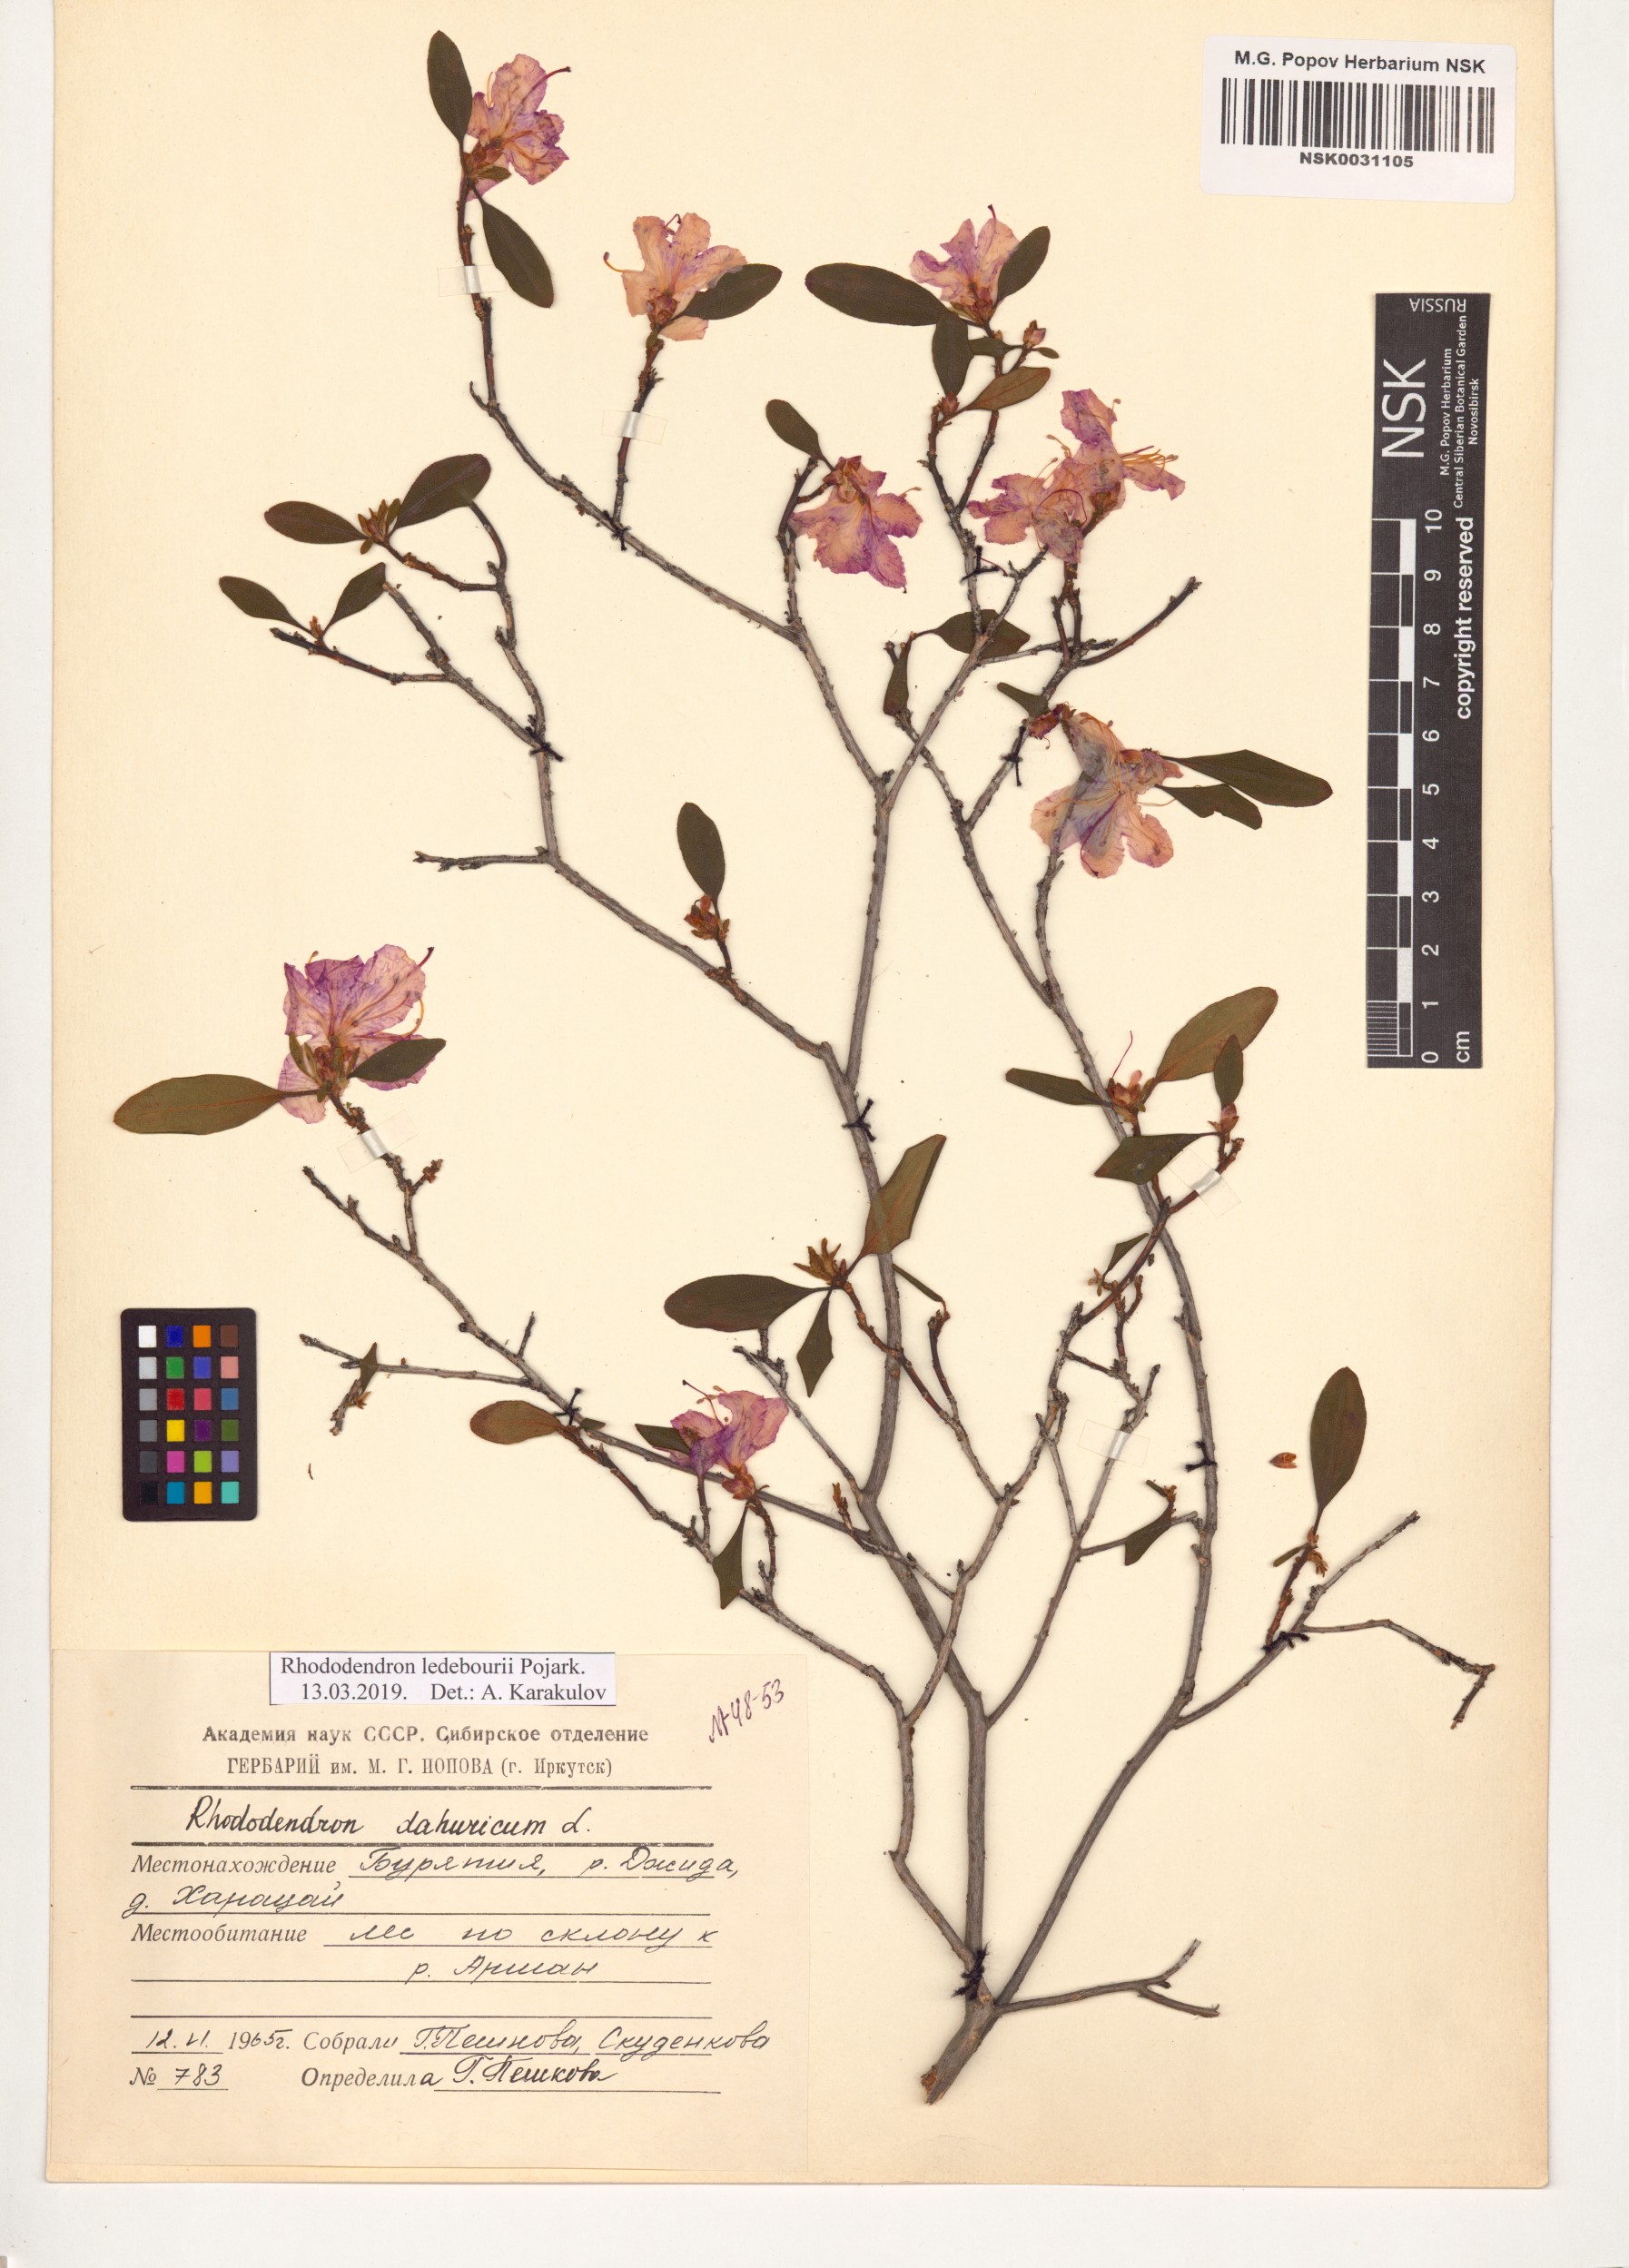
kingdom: Plantae
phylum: Tracheophyta
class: Magnoliopsida
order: Ericales
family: Ericaceae
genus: Rhododendron
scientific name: Rhododendron dauricum
